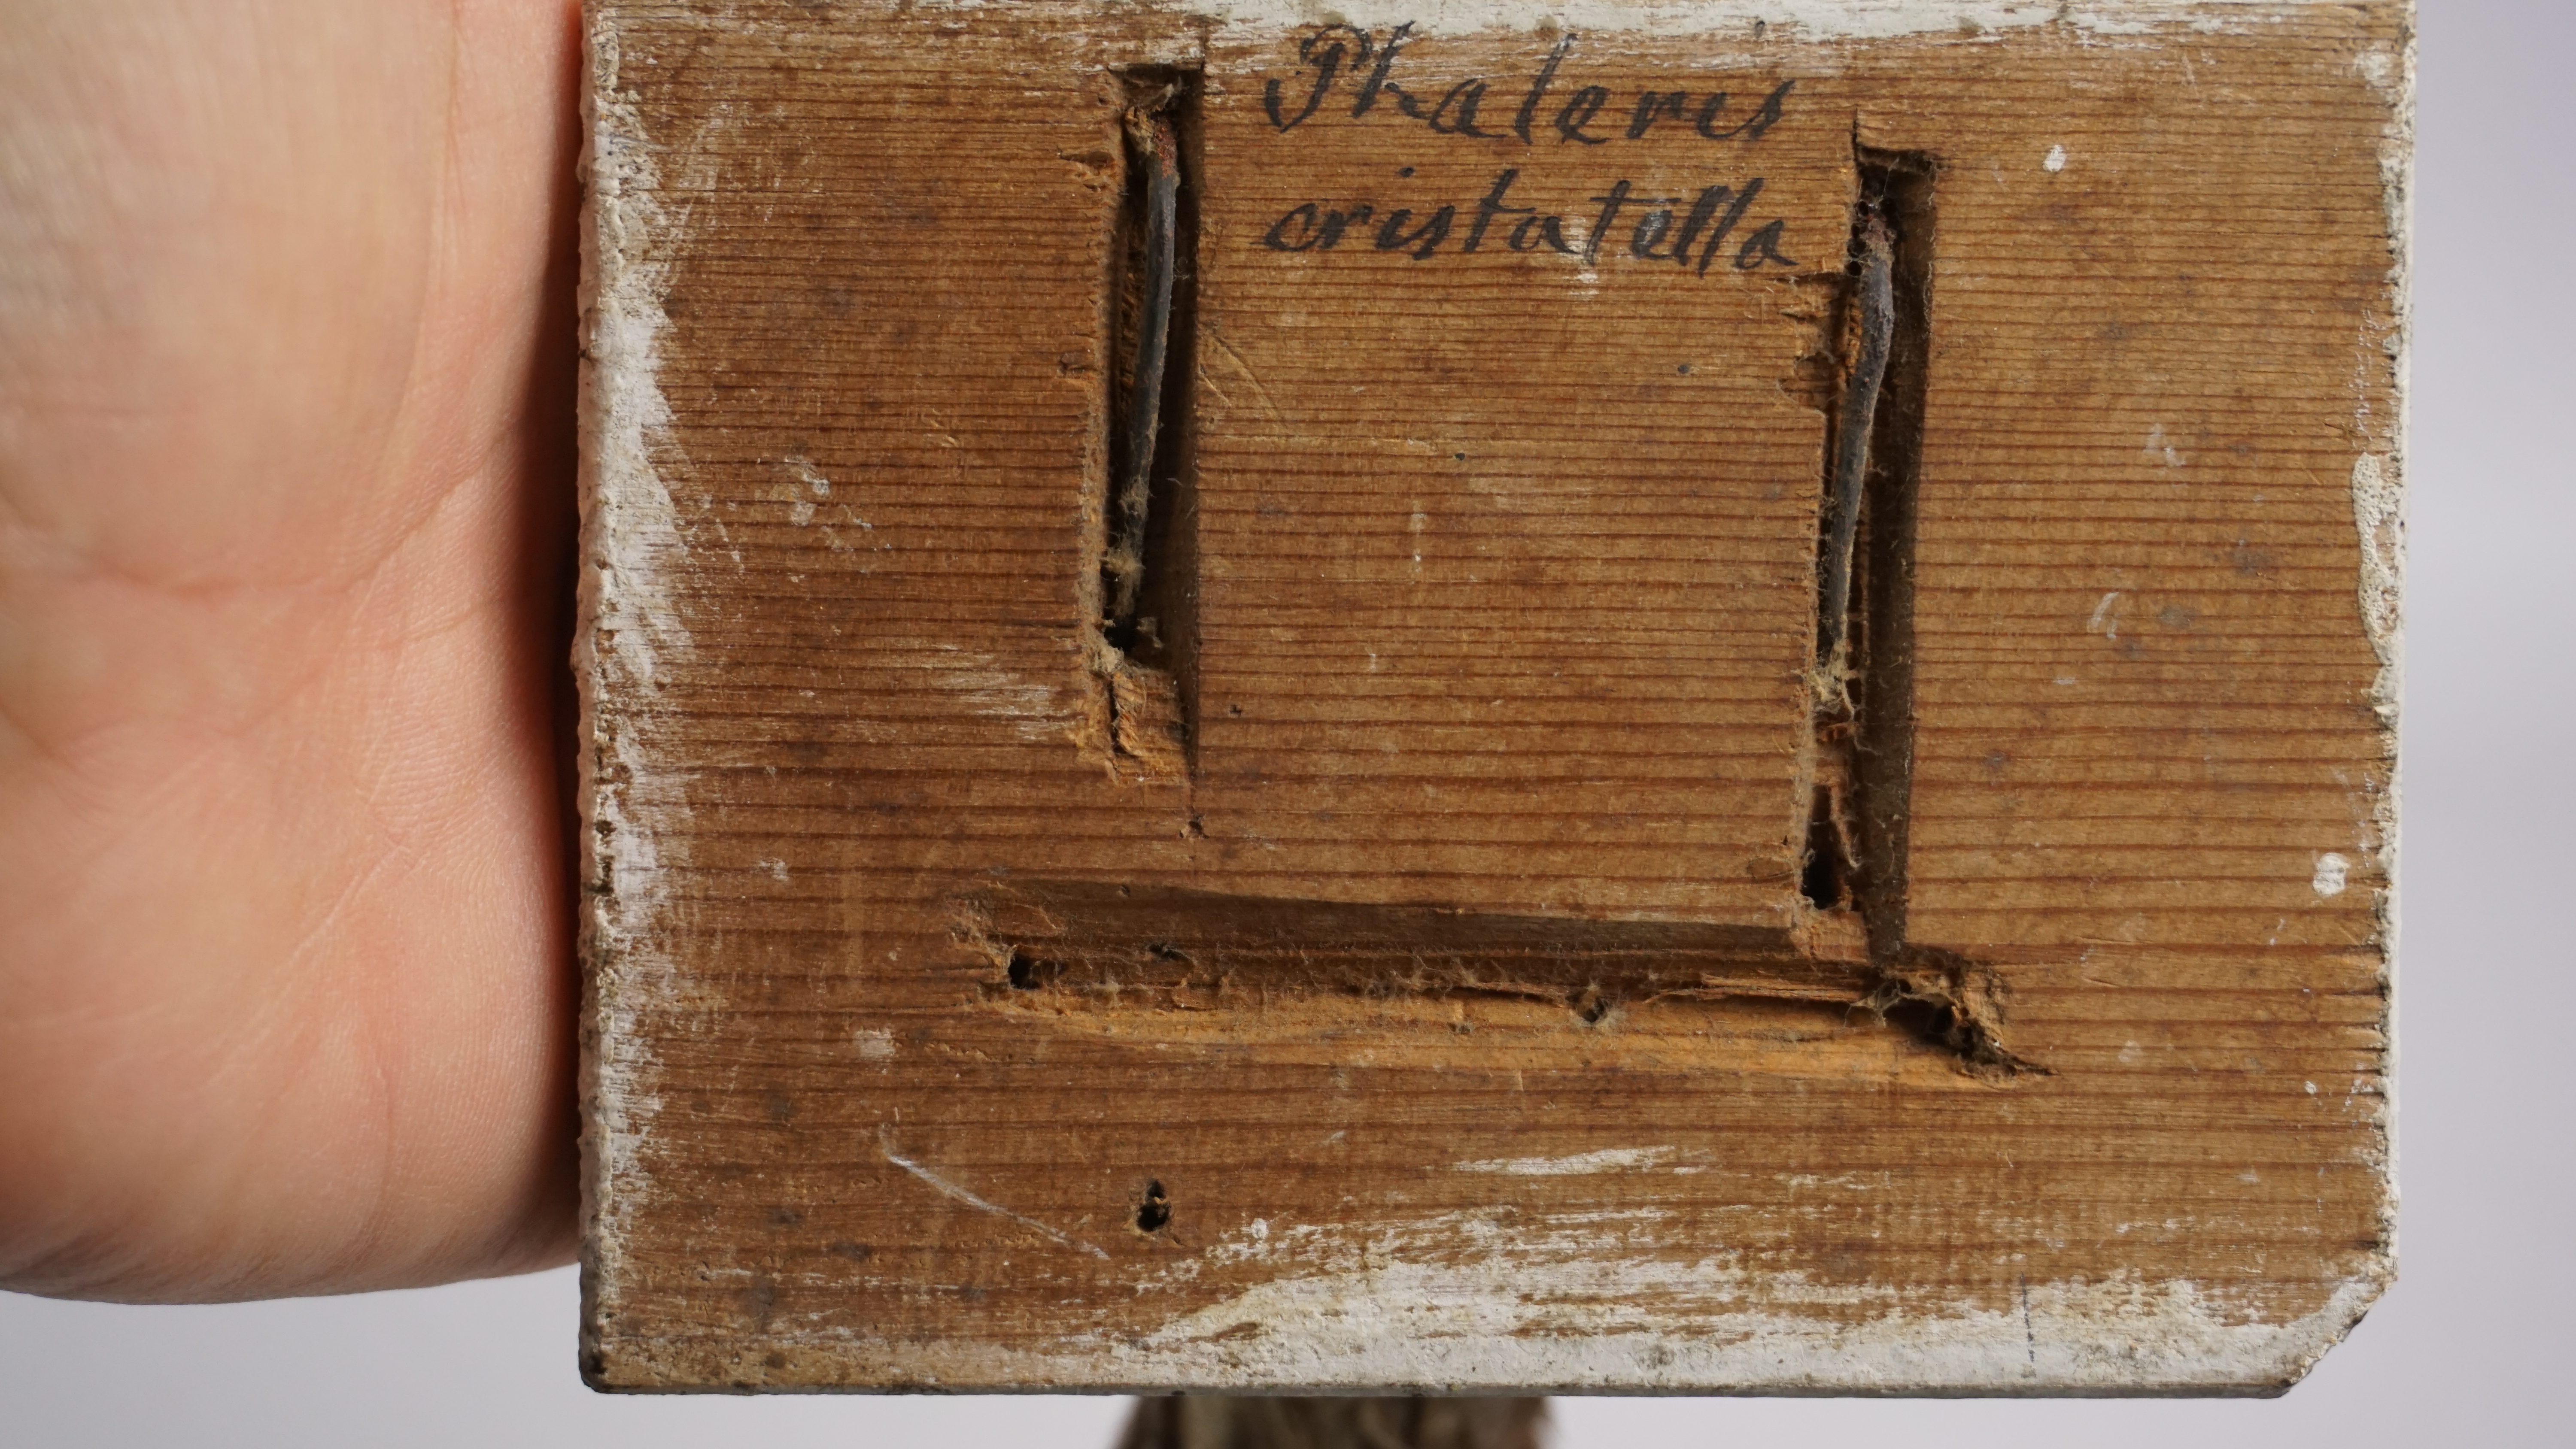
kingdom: Animalia
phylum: Chordata
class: Aves
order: Charadriiformes
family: Alcidae
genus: Aethia
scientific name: Aethia cristatella
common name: Crested auklet
